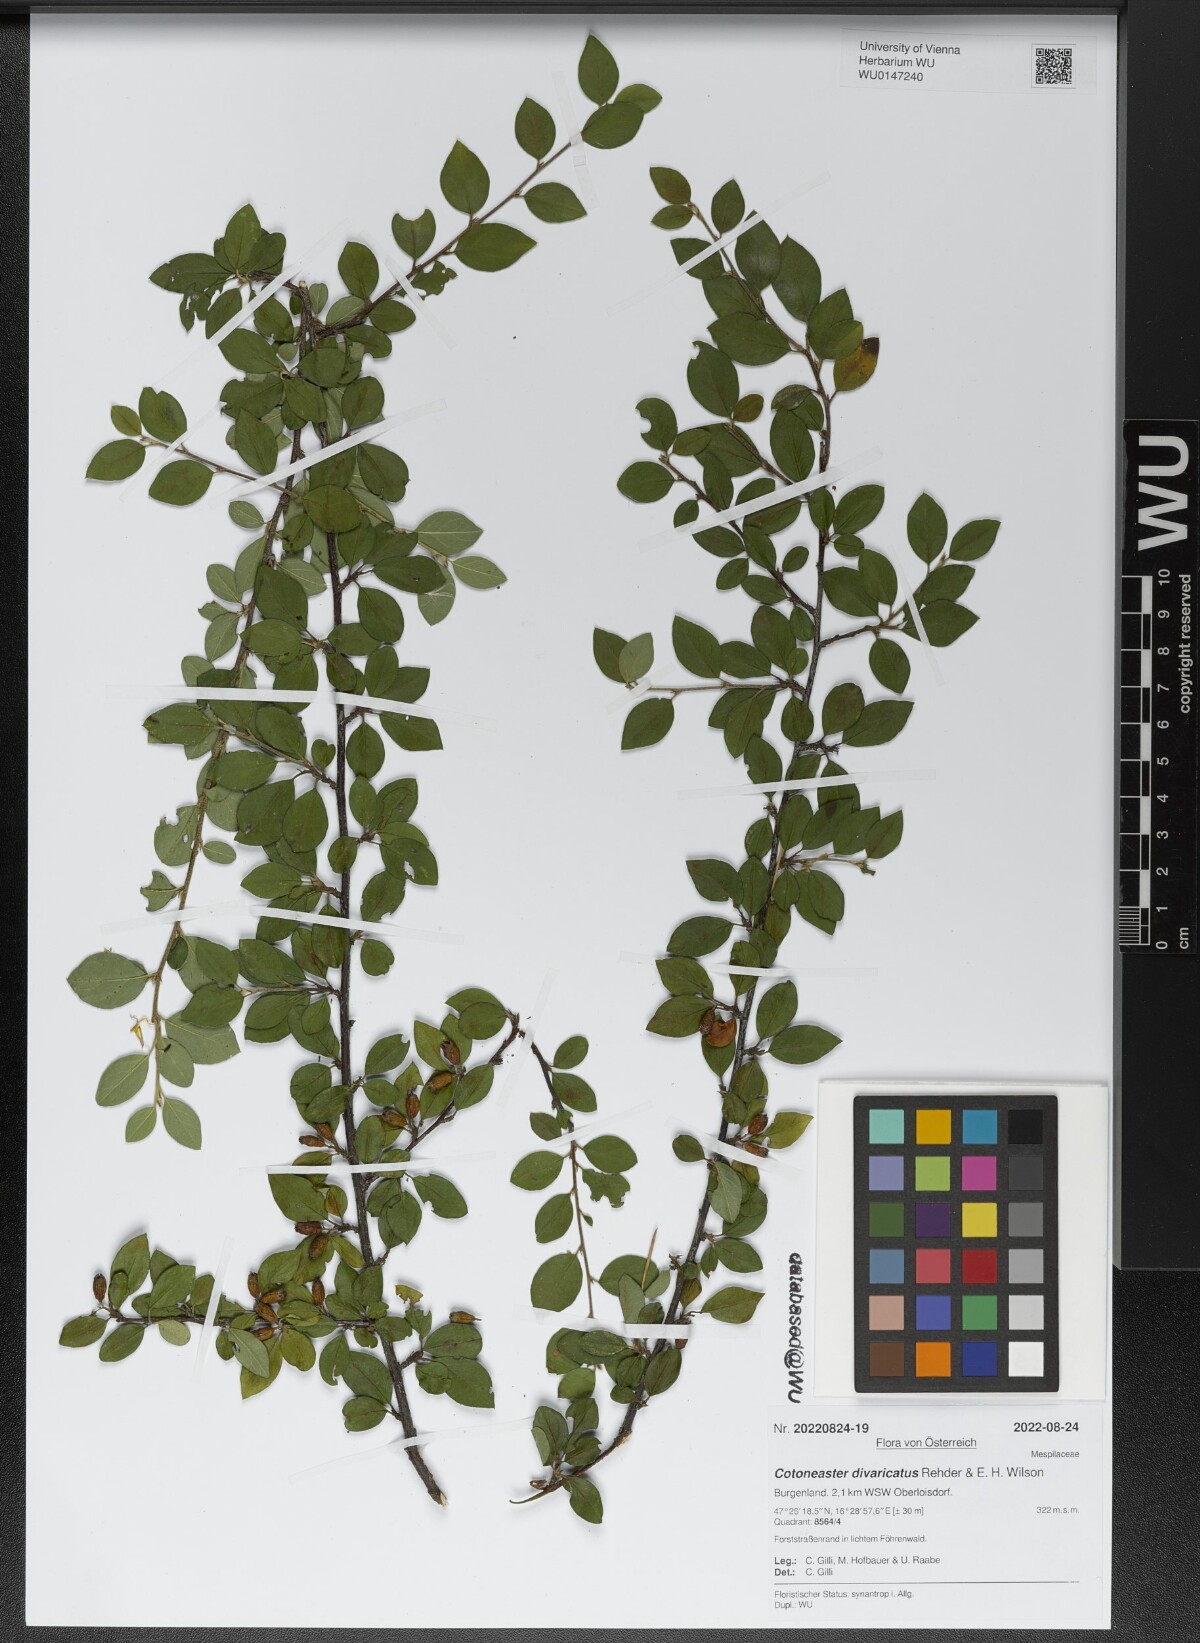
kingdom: Plantae
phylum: Tracheophyta
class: Magnoliopsida
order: Rosales
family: Rosaceae
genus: Cotoneaster
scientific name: Cotoneaster divaricatus
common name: Spreading cotoneaster
